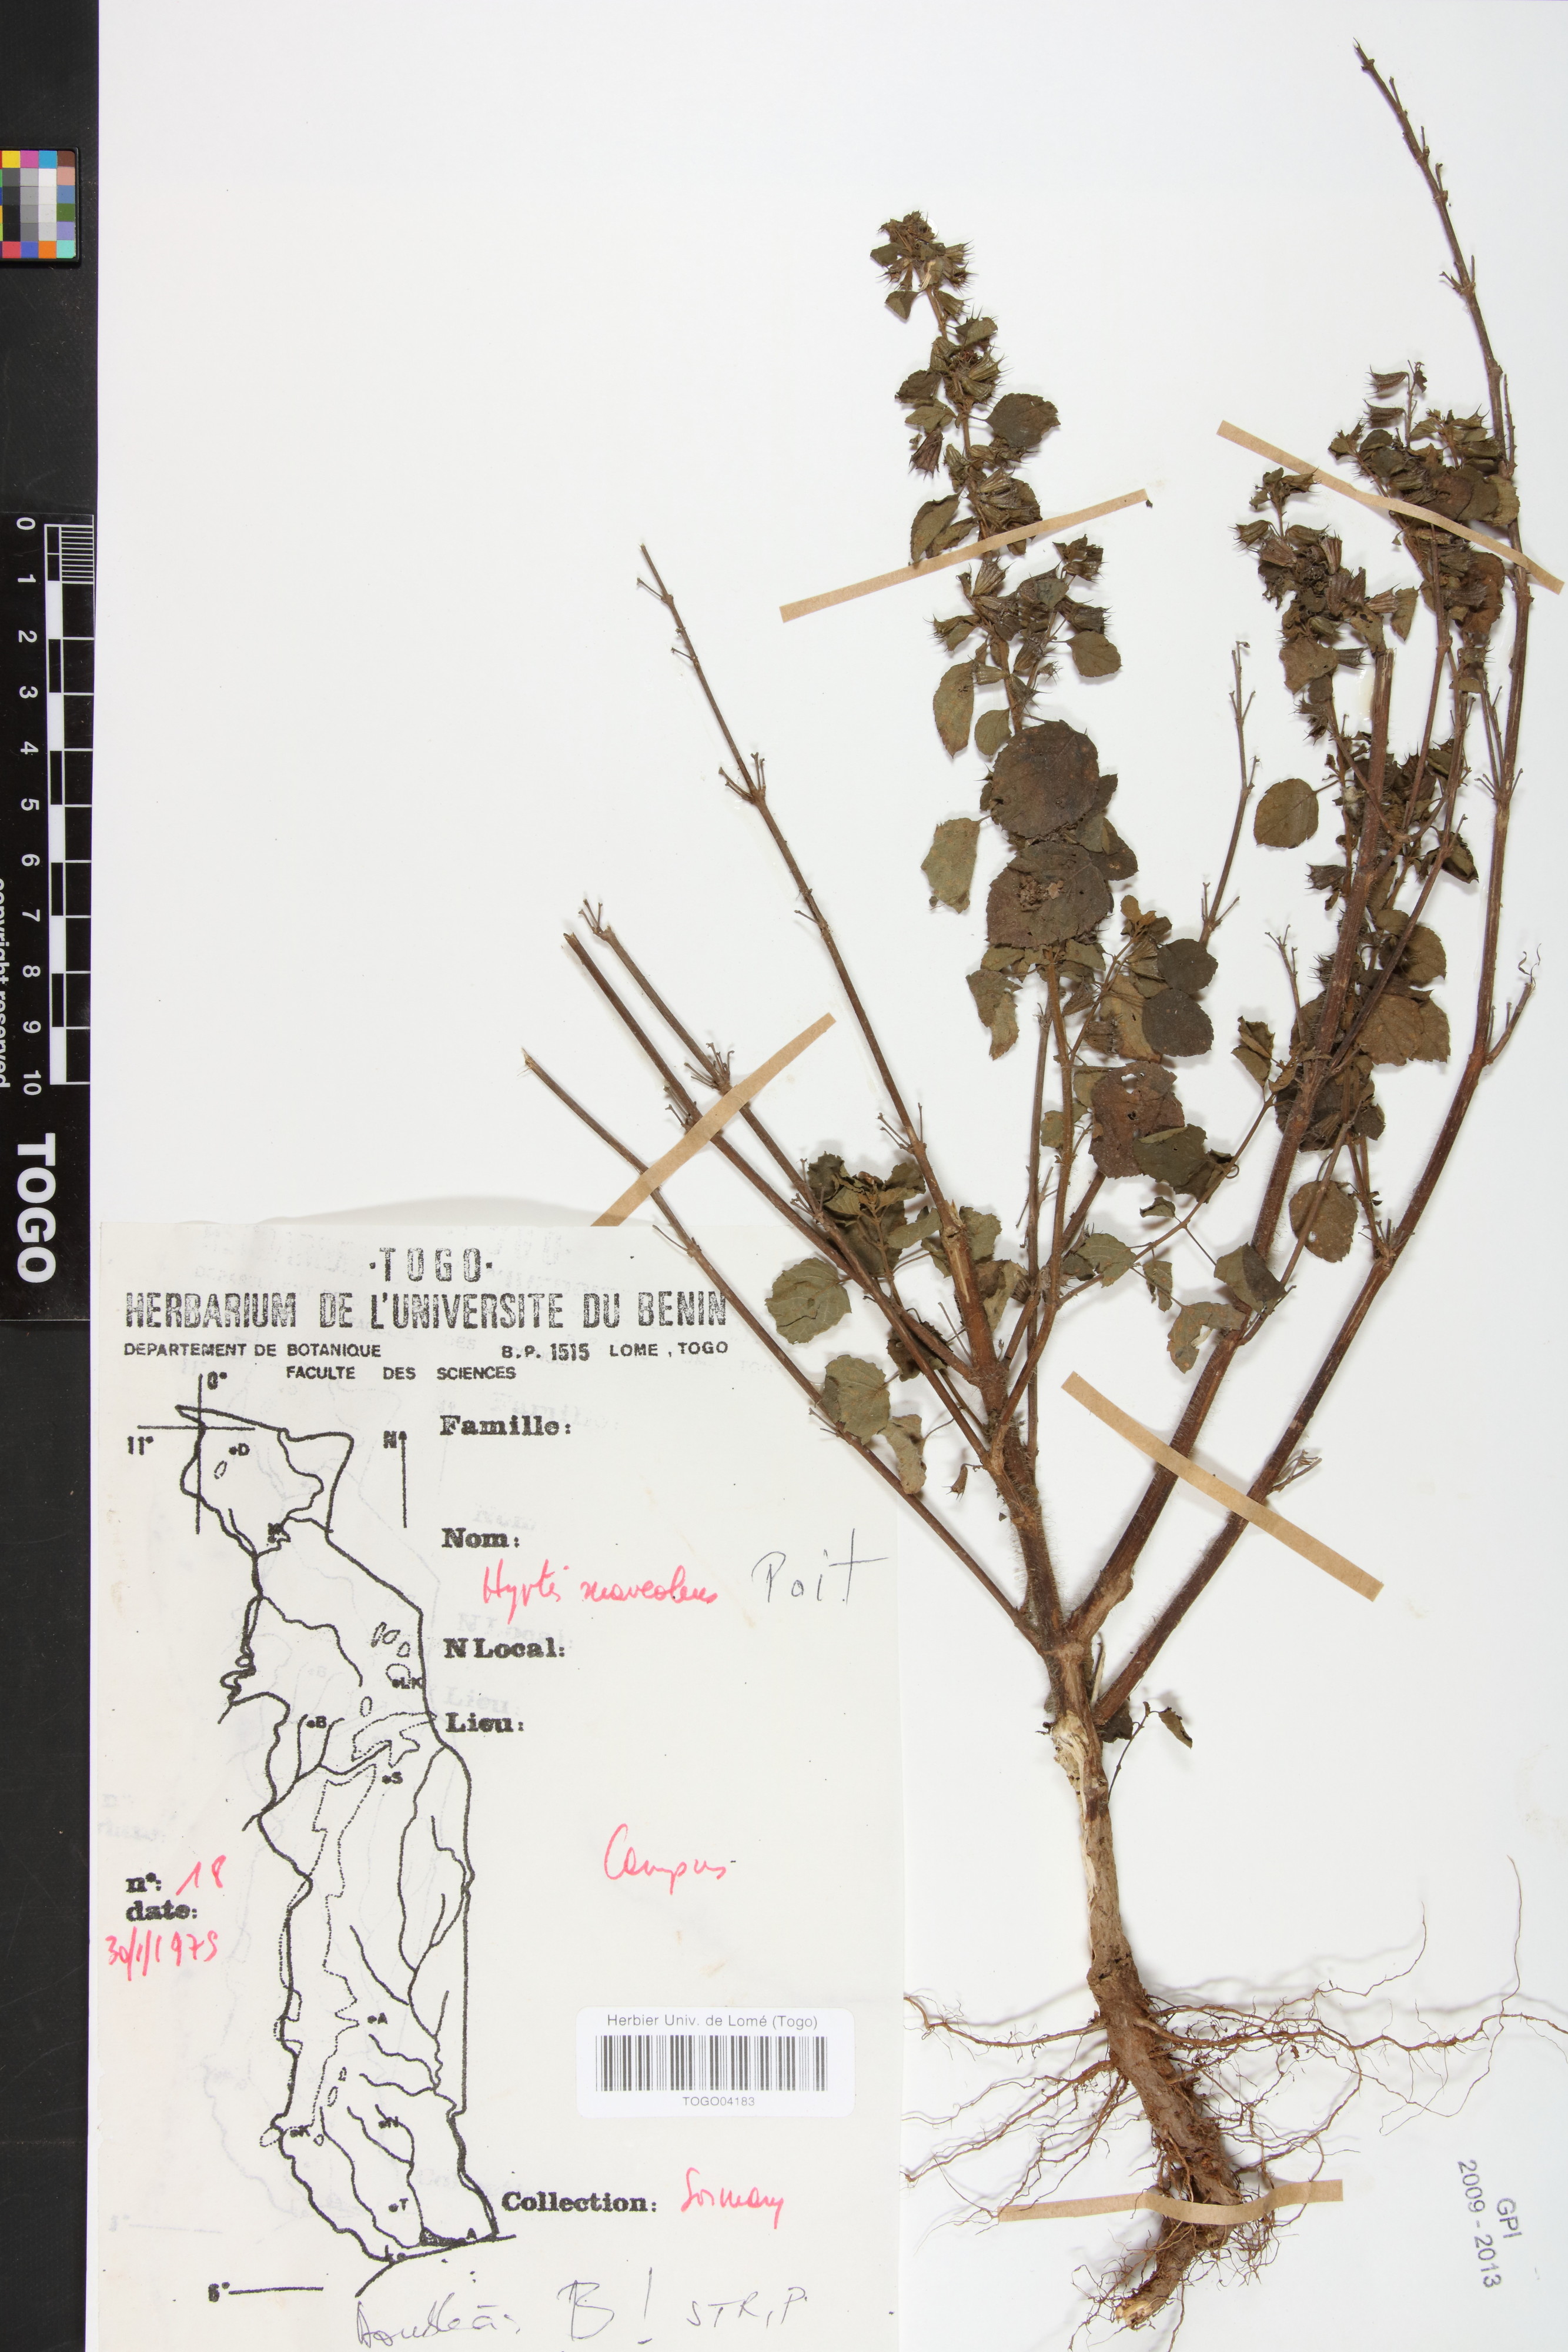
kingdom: Plantae
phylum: Tracheophyta
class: Magnoliopsida
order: Lamiales
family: Lamiaceae
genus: Mesosphaerum
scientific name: Mesosphaerum suaveolens
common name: Pignut
